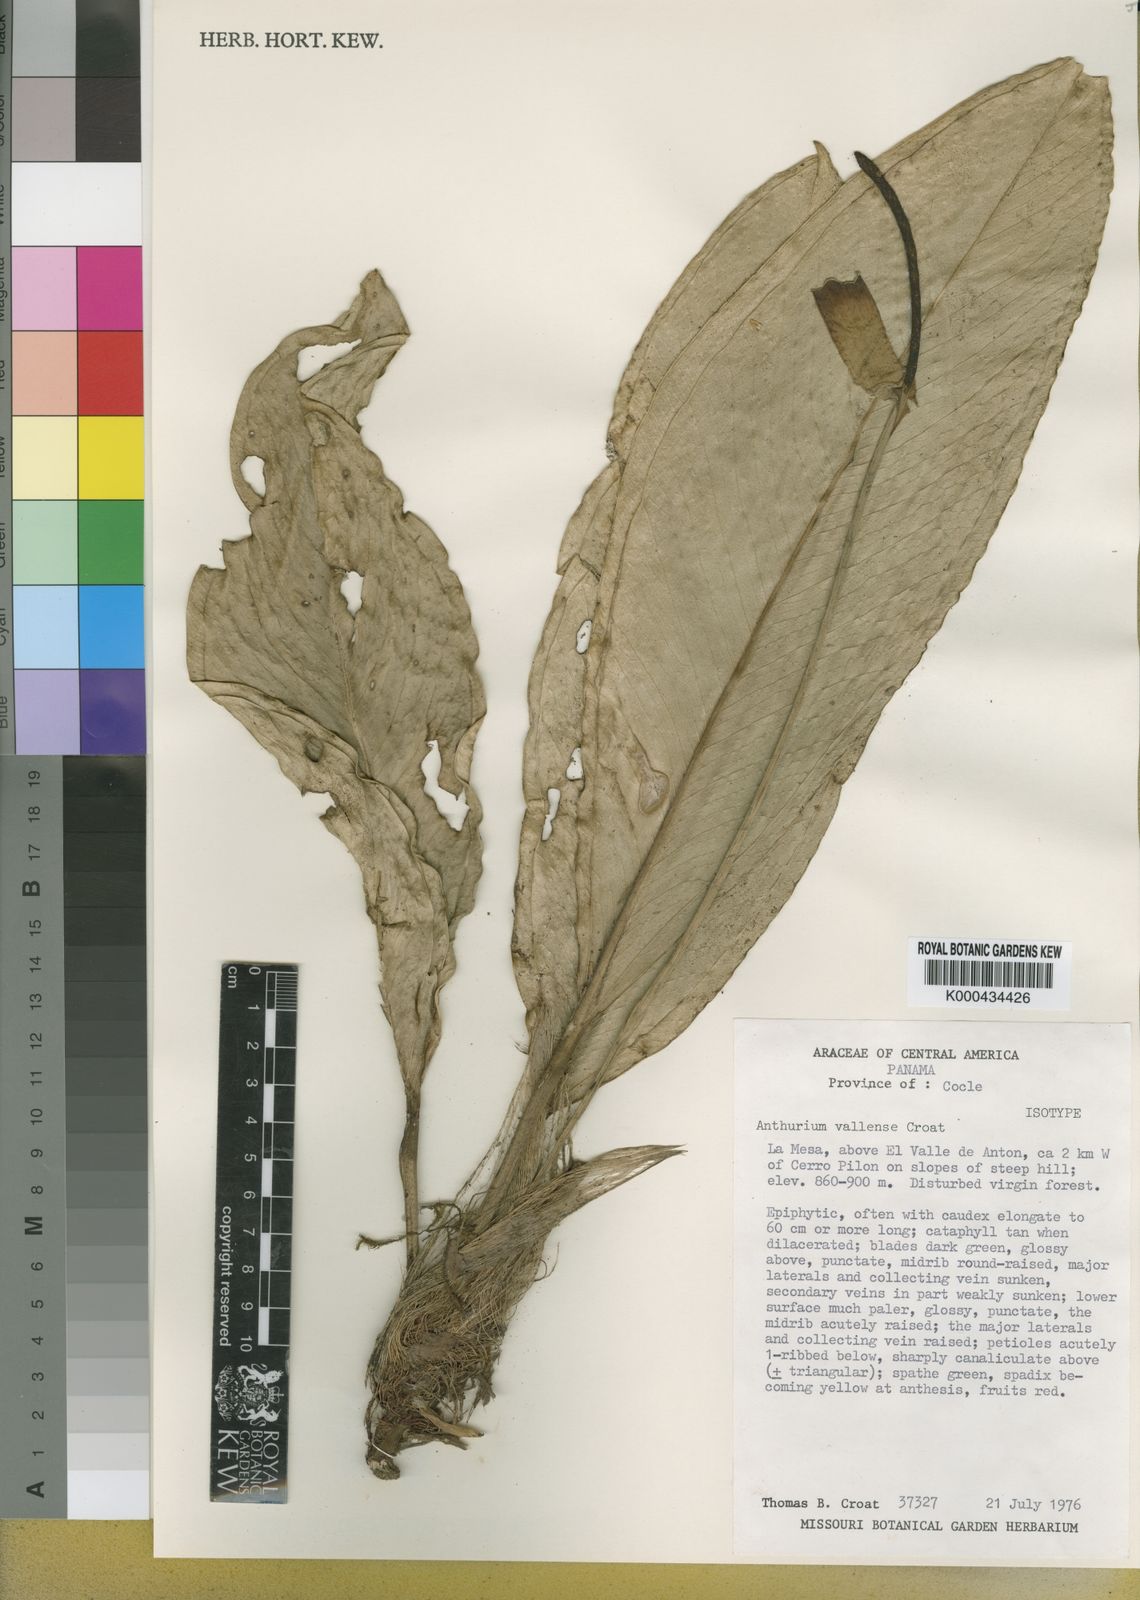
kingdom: Plantae
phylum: Tracheophyta
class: Liliopsida
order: Alismatales
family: Araceae
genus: Anthurium
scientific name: Anthurium vallense
